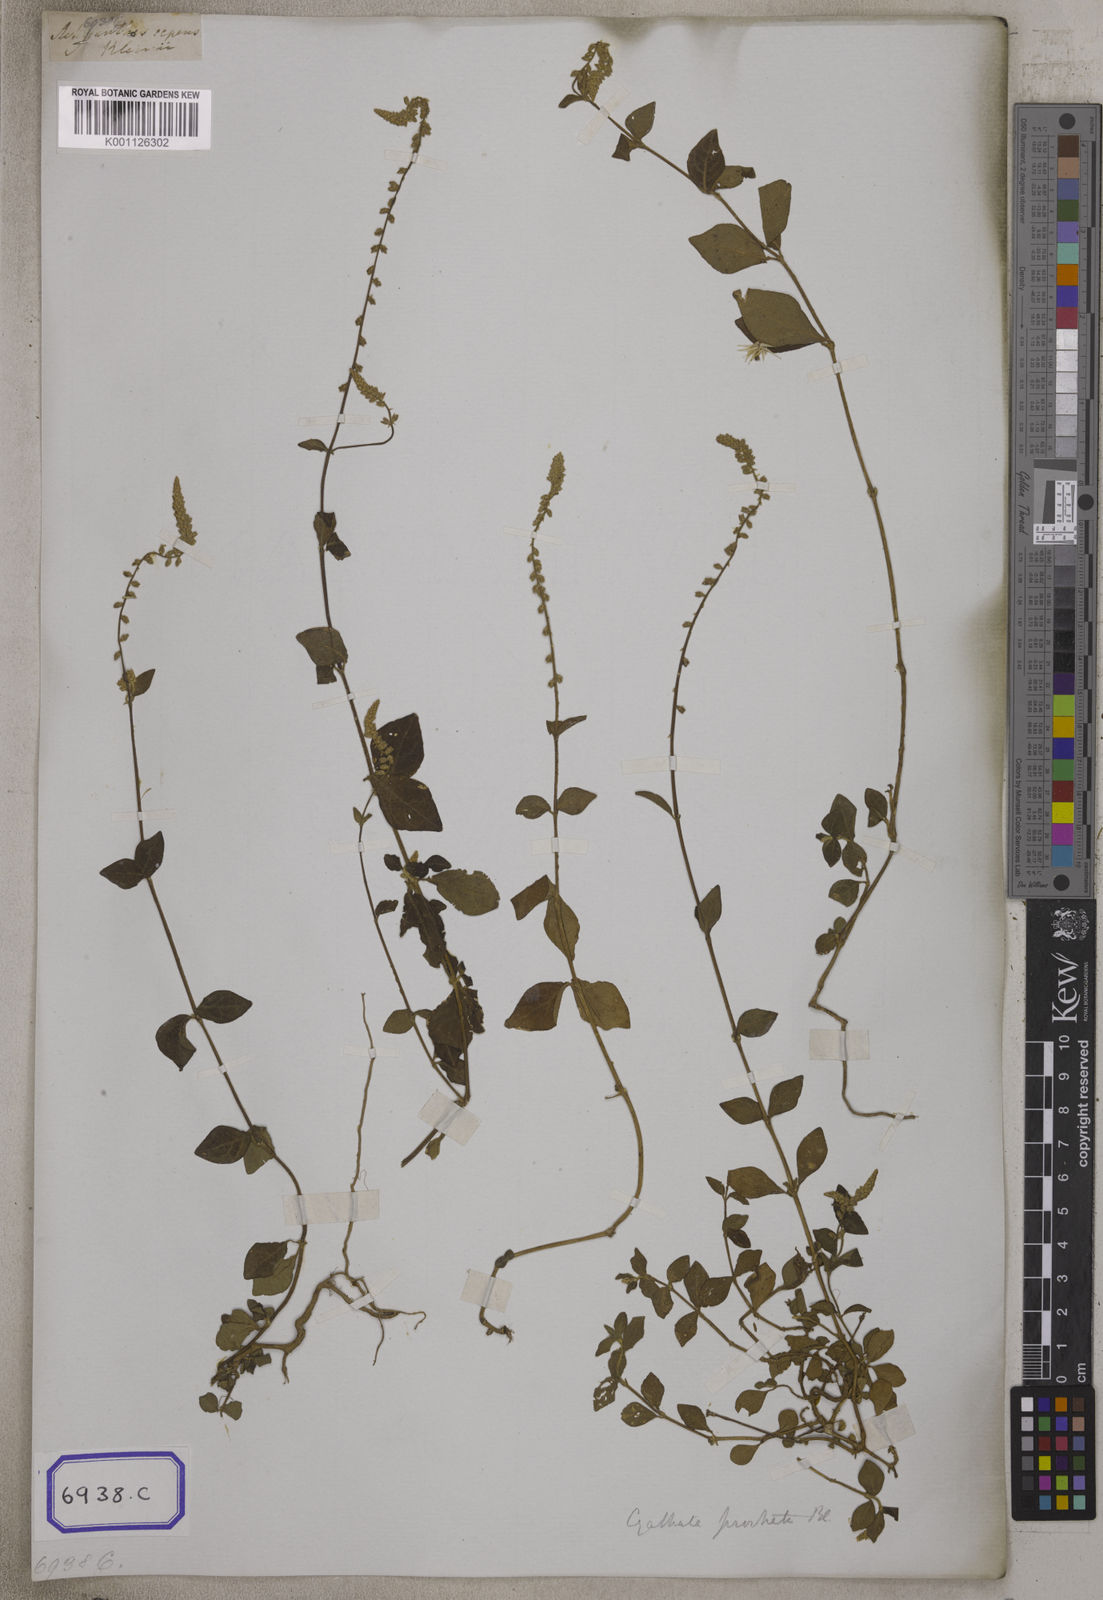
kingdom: Plantae
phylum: Tracheophyta
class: Magnoliopsida
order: Caryophyllales
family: Amaranthaceae
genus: Cyathula
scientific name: Cyathula prostrata
